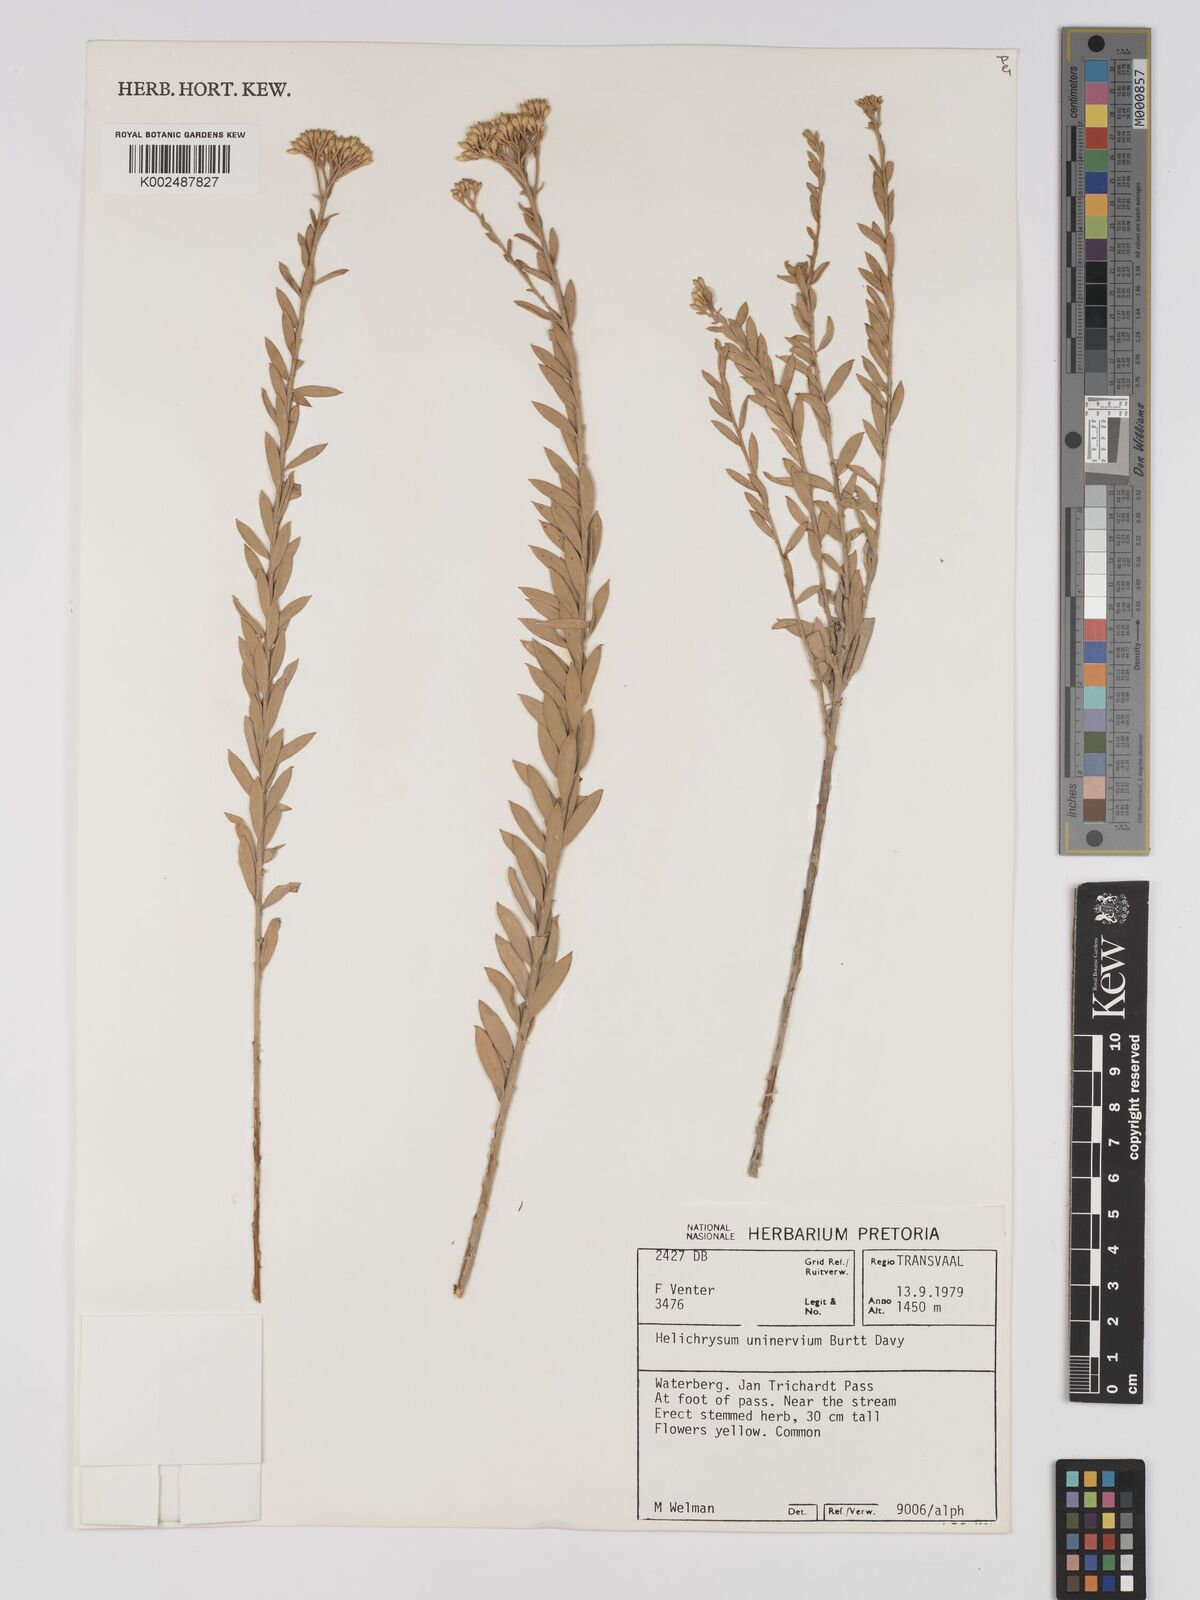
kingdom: Plantae
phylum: Tracheophyta
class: Magnoliopsida
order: Asterales
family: Asteraceae
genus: Helichrysum
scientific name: Helichrysum uninervium
